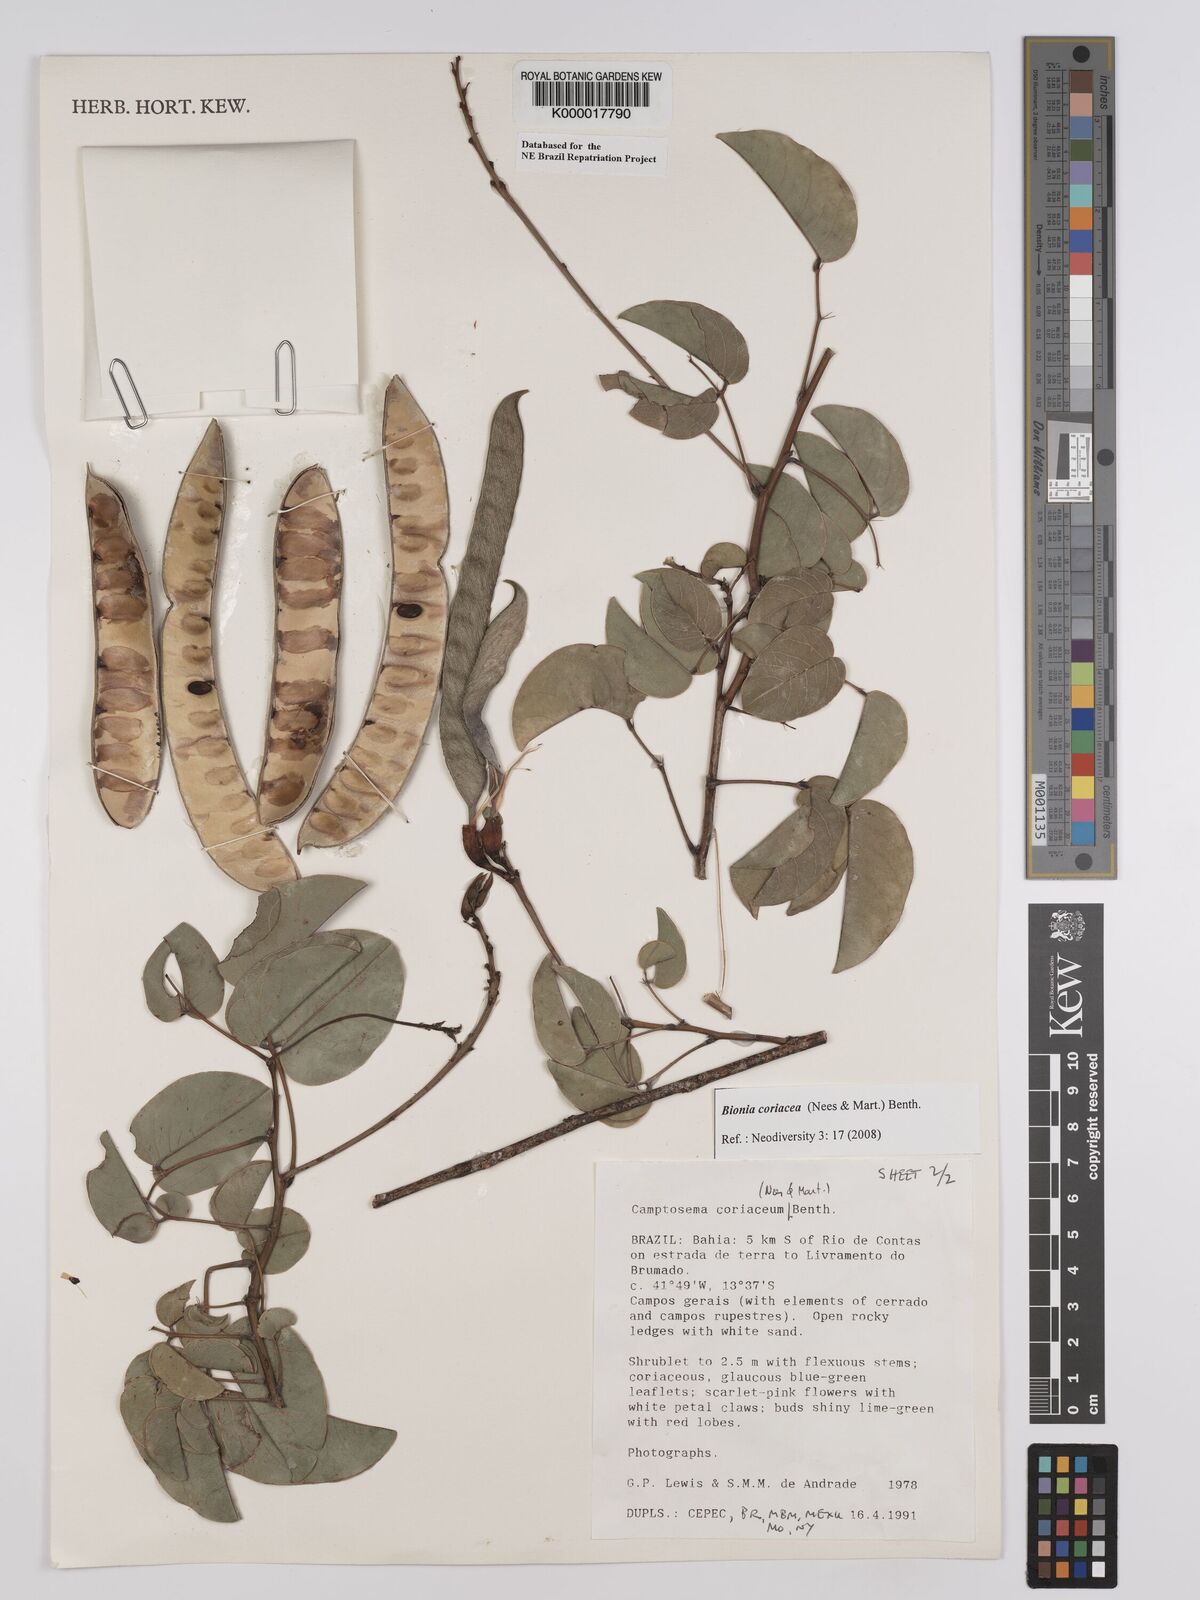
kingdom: Plantae
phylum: Tracheophyta
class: Magnoliopsida
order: Fabales
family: Fabaceae
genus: Camptosema
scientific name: Camptosema coriaceum
